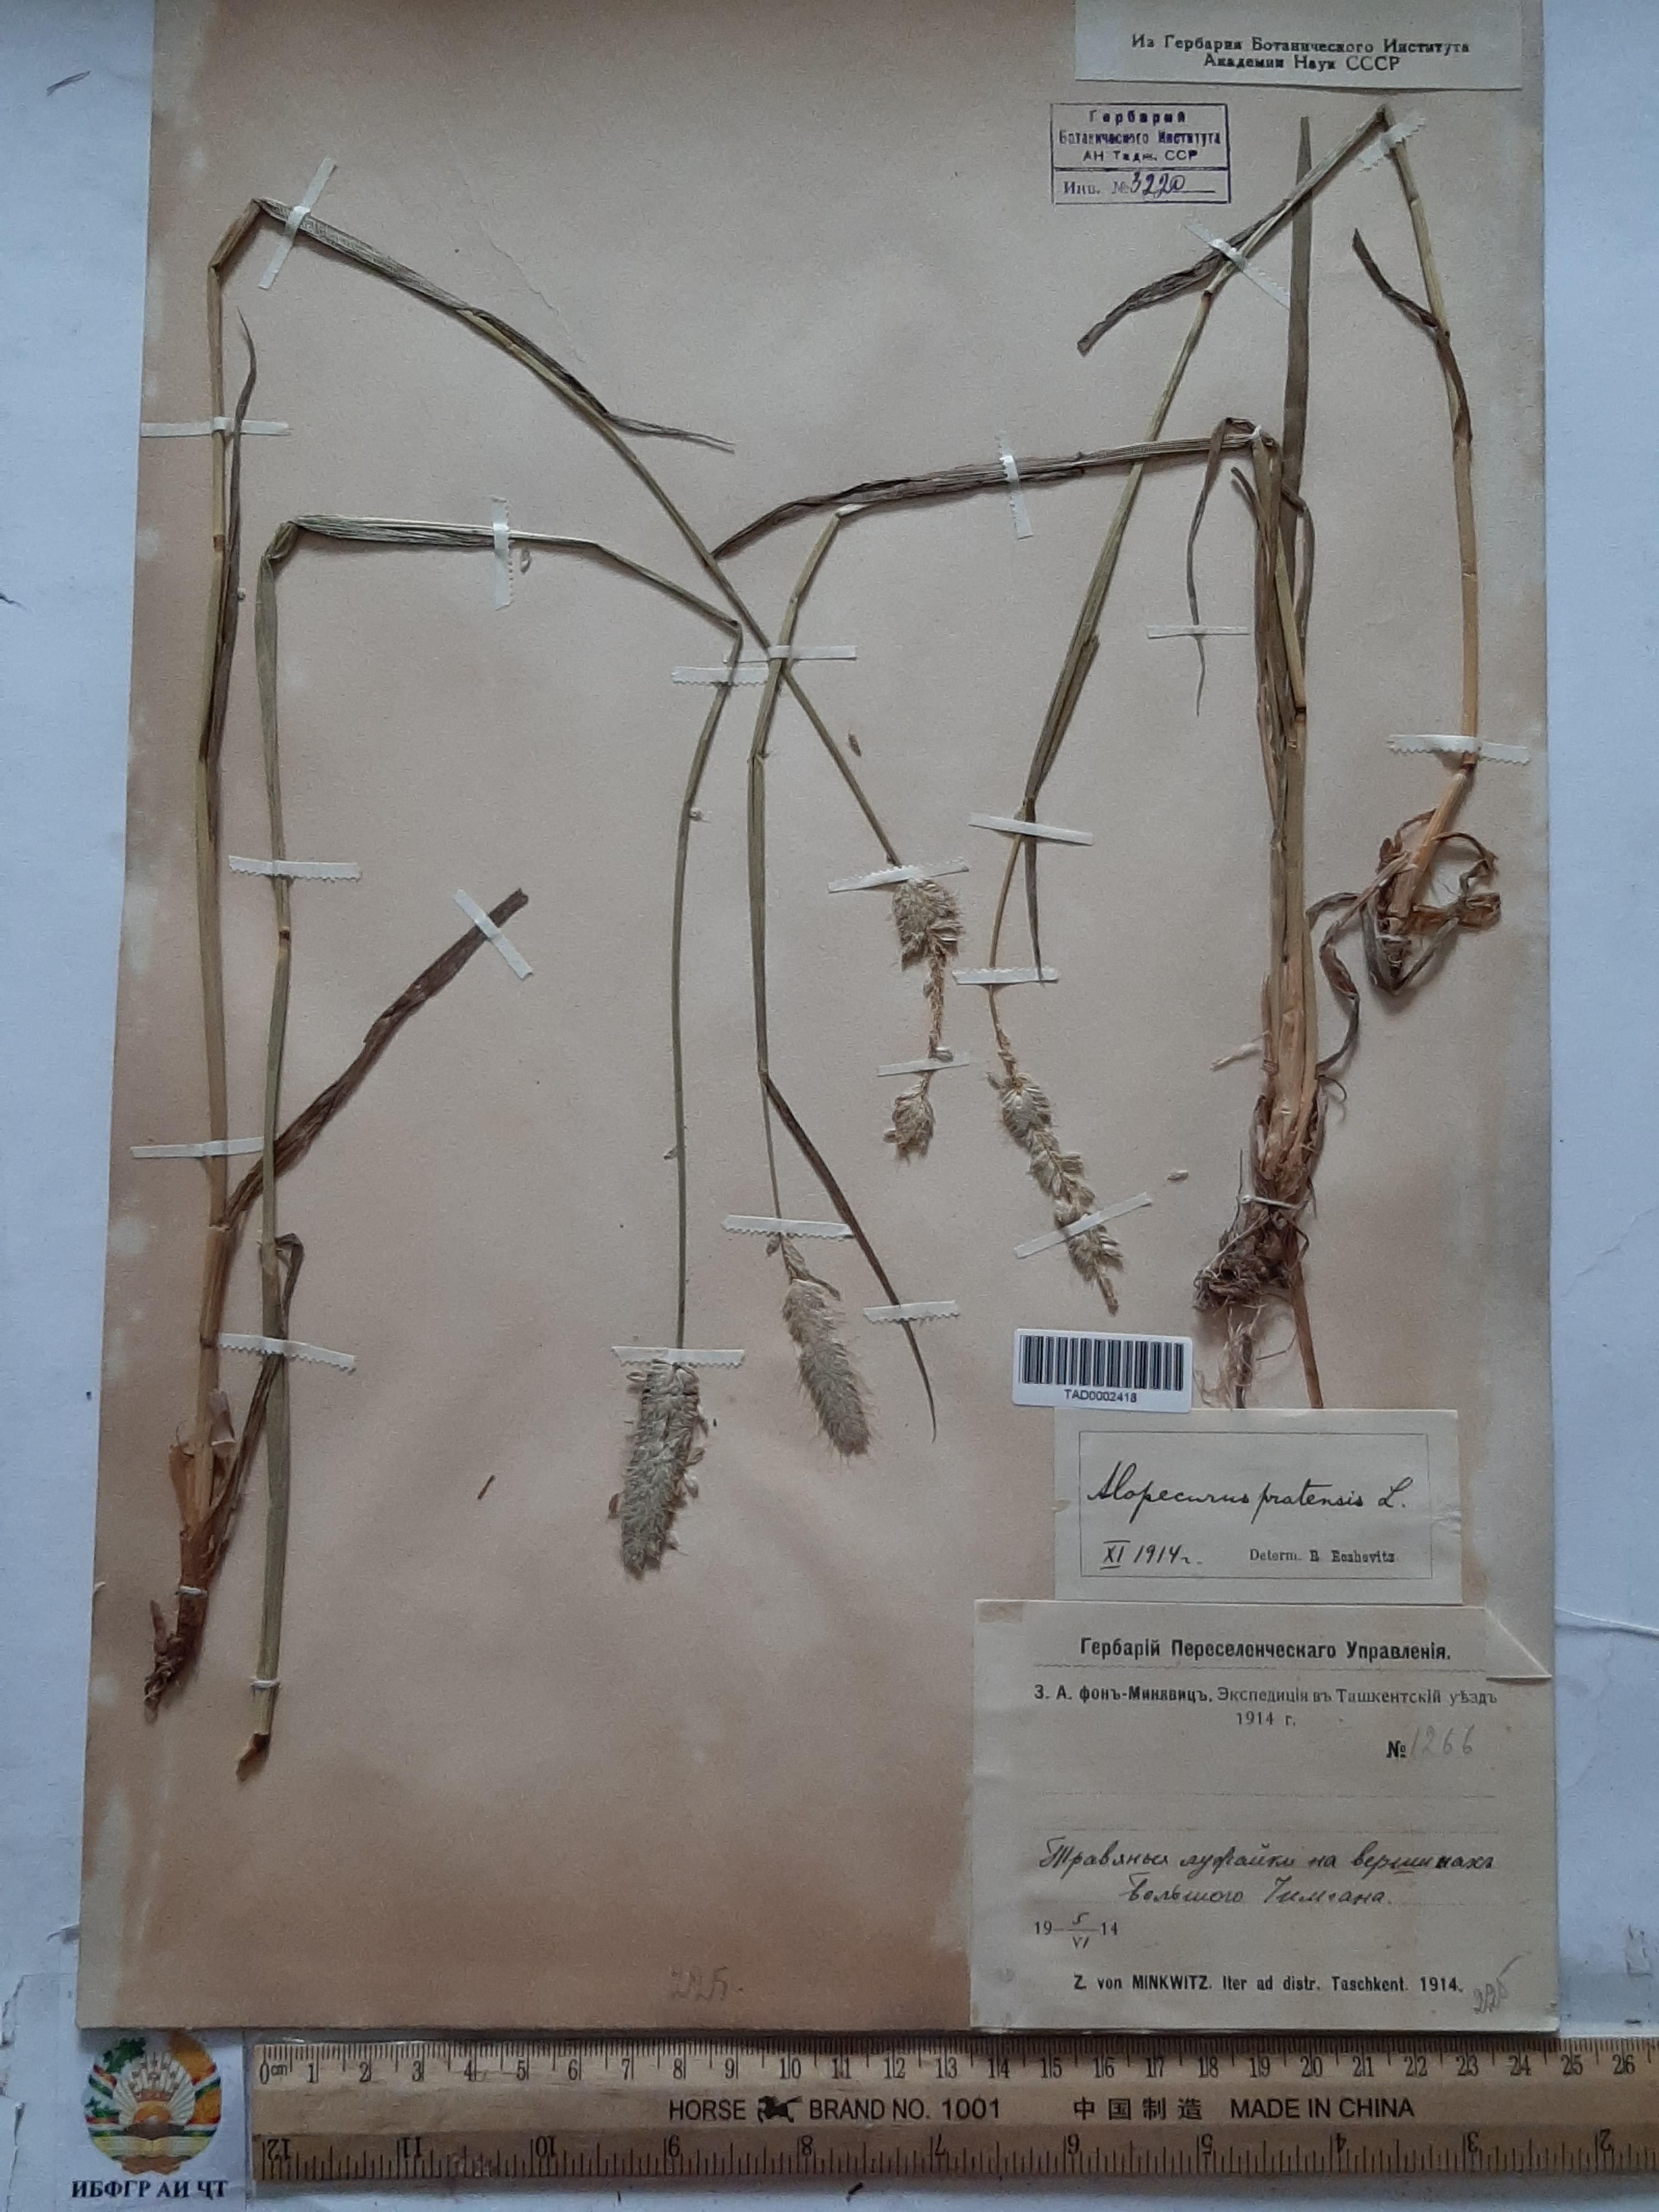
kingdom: Plantae
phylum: Tracheophyta
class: Liliopsida
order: Poales
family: Poaceae
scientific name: Poaceae
